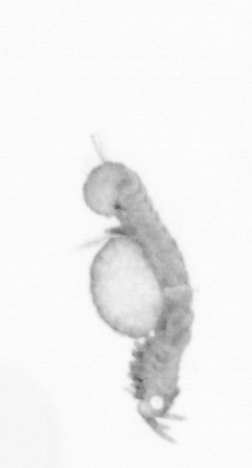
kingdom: Animalia
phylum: Annelida
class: Polychaeta
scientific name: Polychaeta
